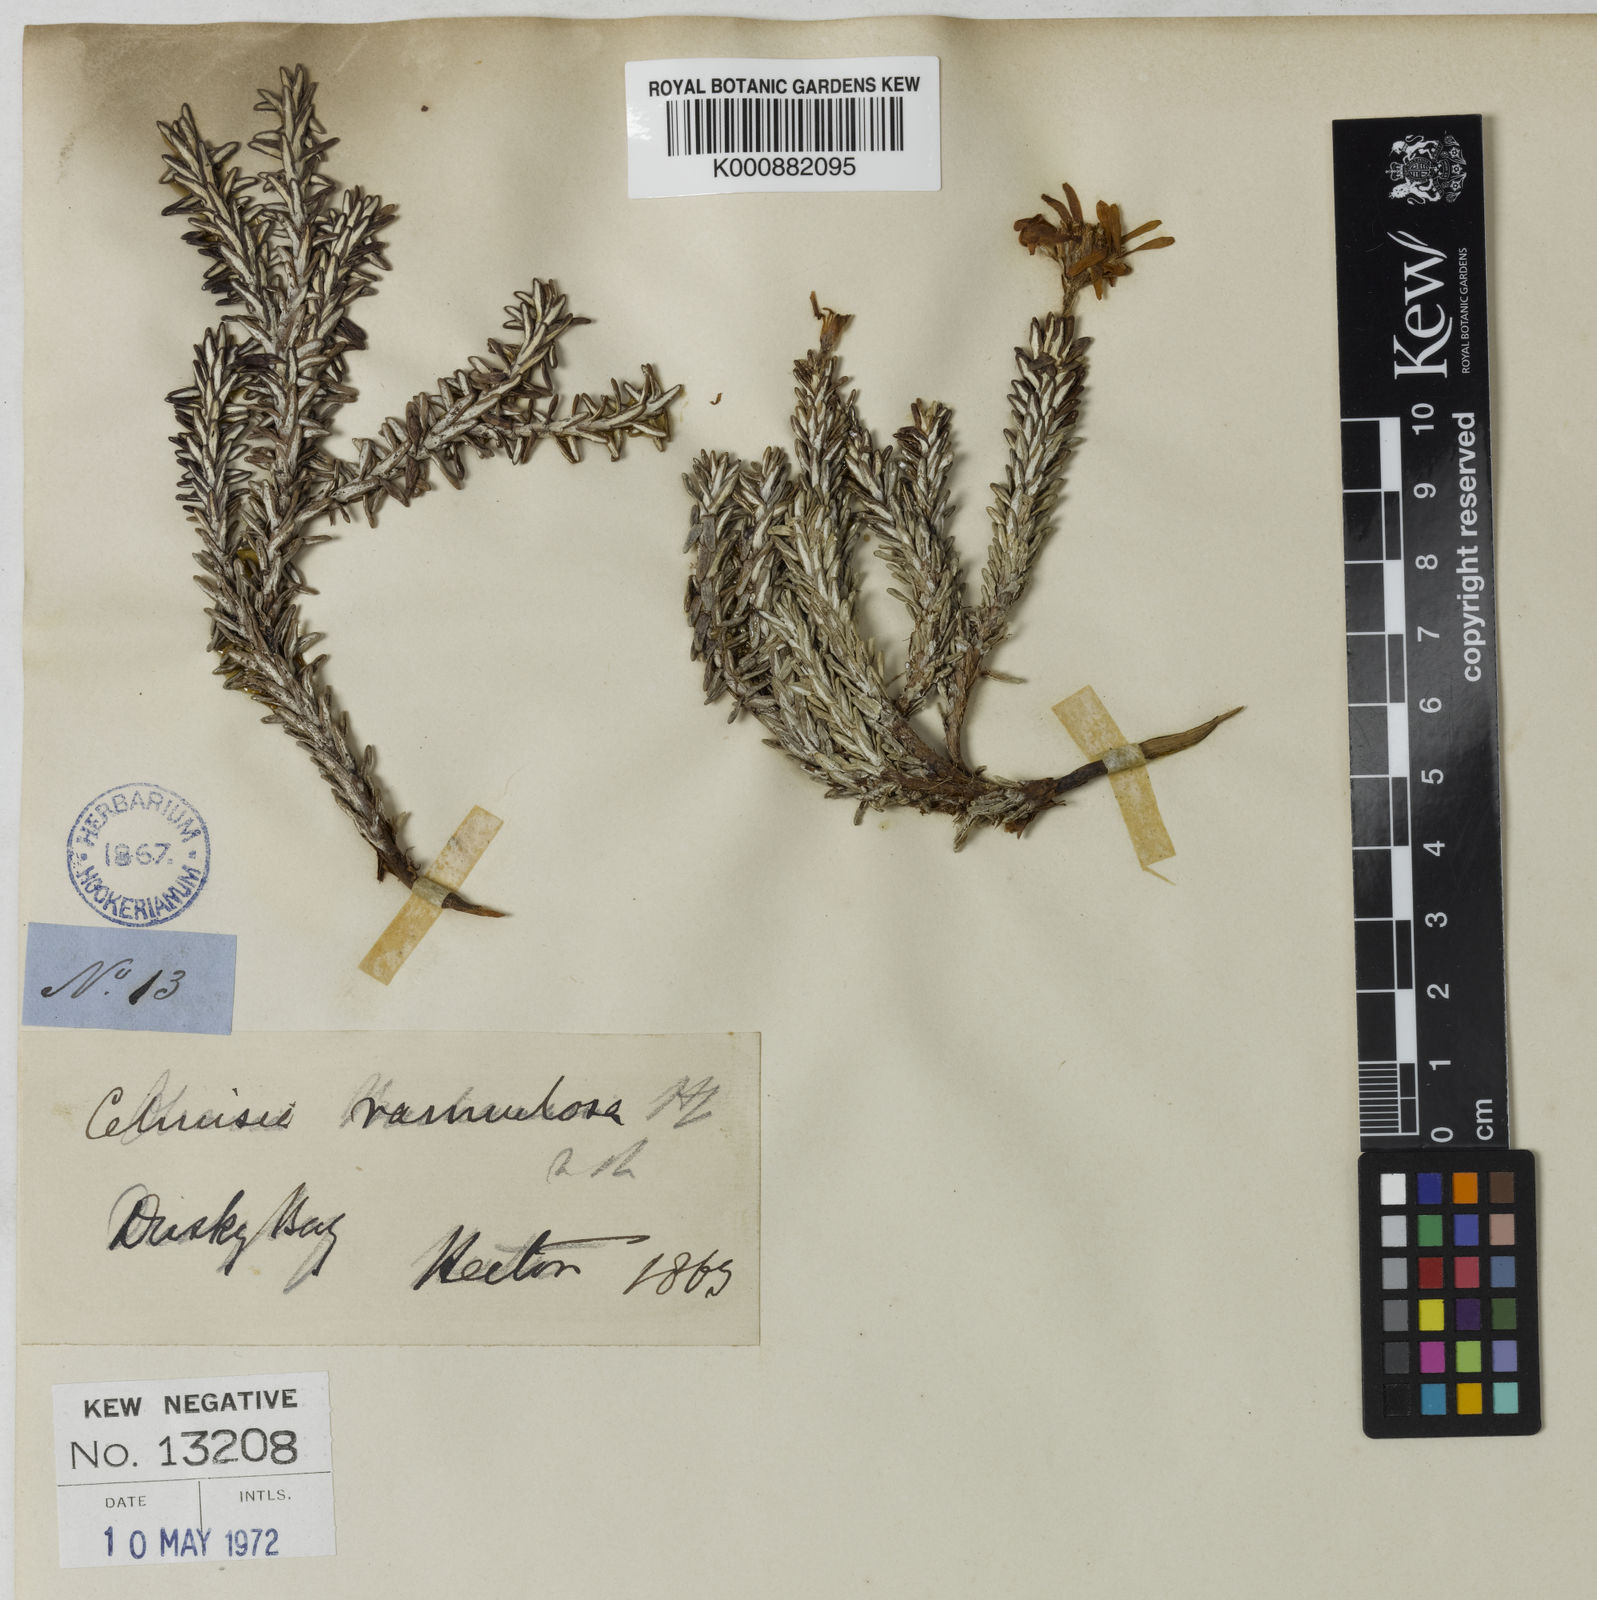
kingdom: Plantae
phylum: Tracheophyta
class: Magnoliopsida
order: Asterales
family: Asteraceae
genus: Celmisia
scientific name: Celmisia ramulosa
